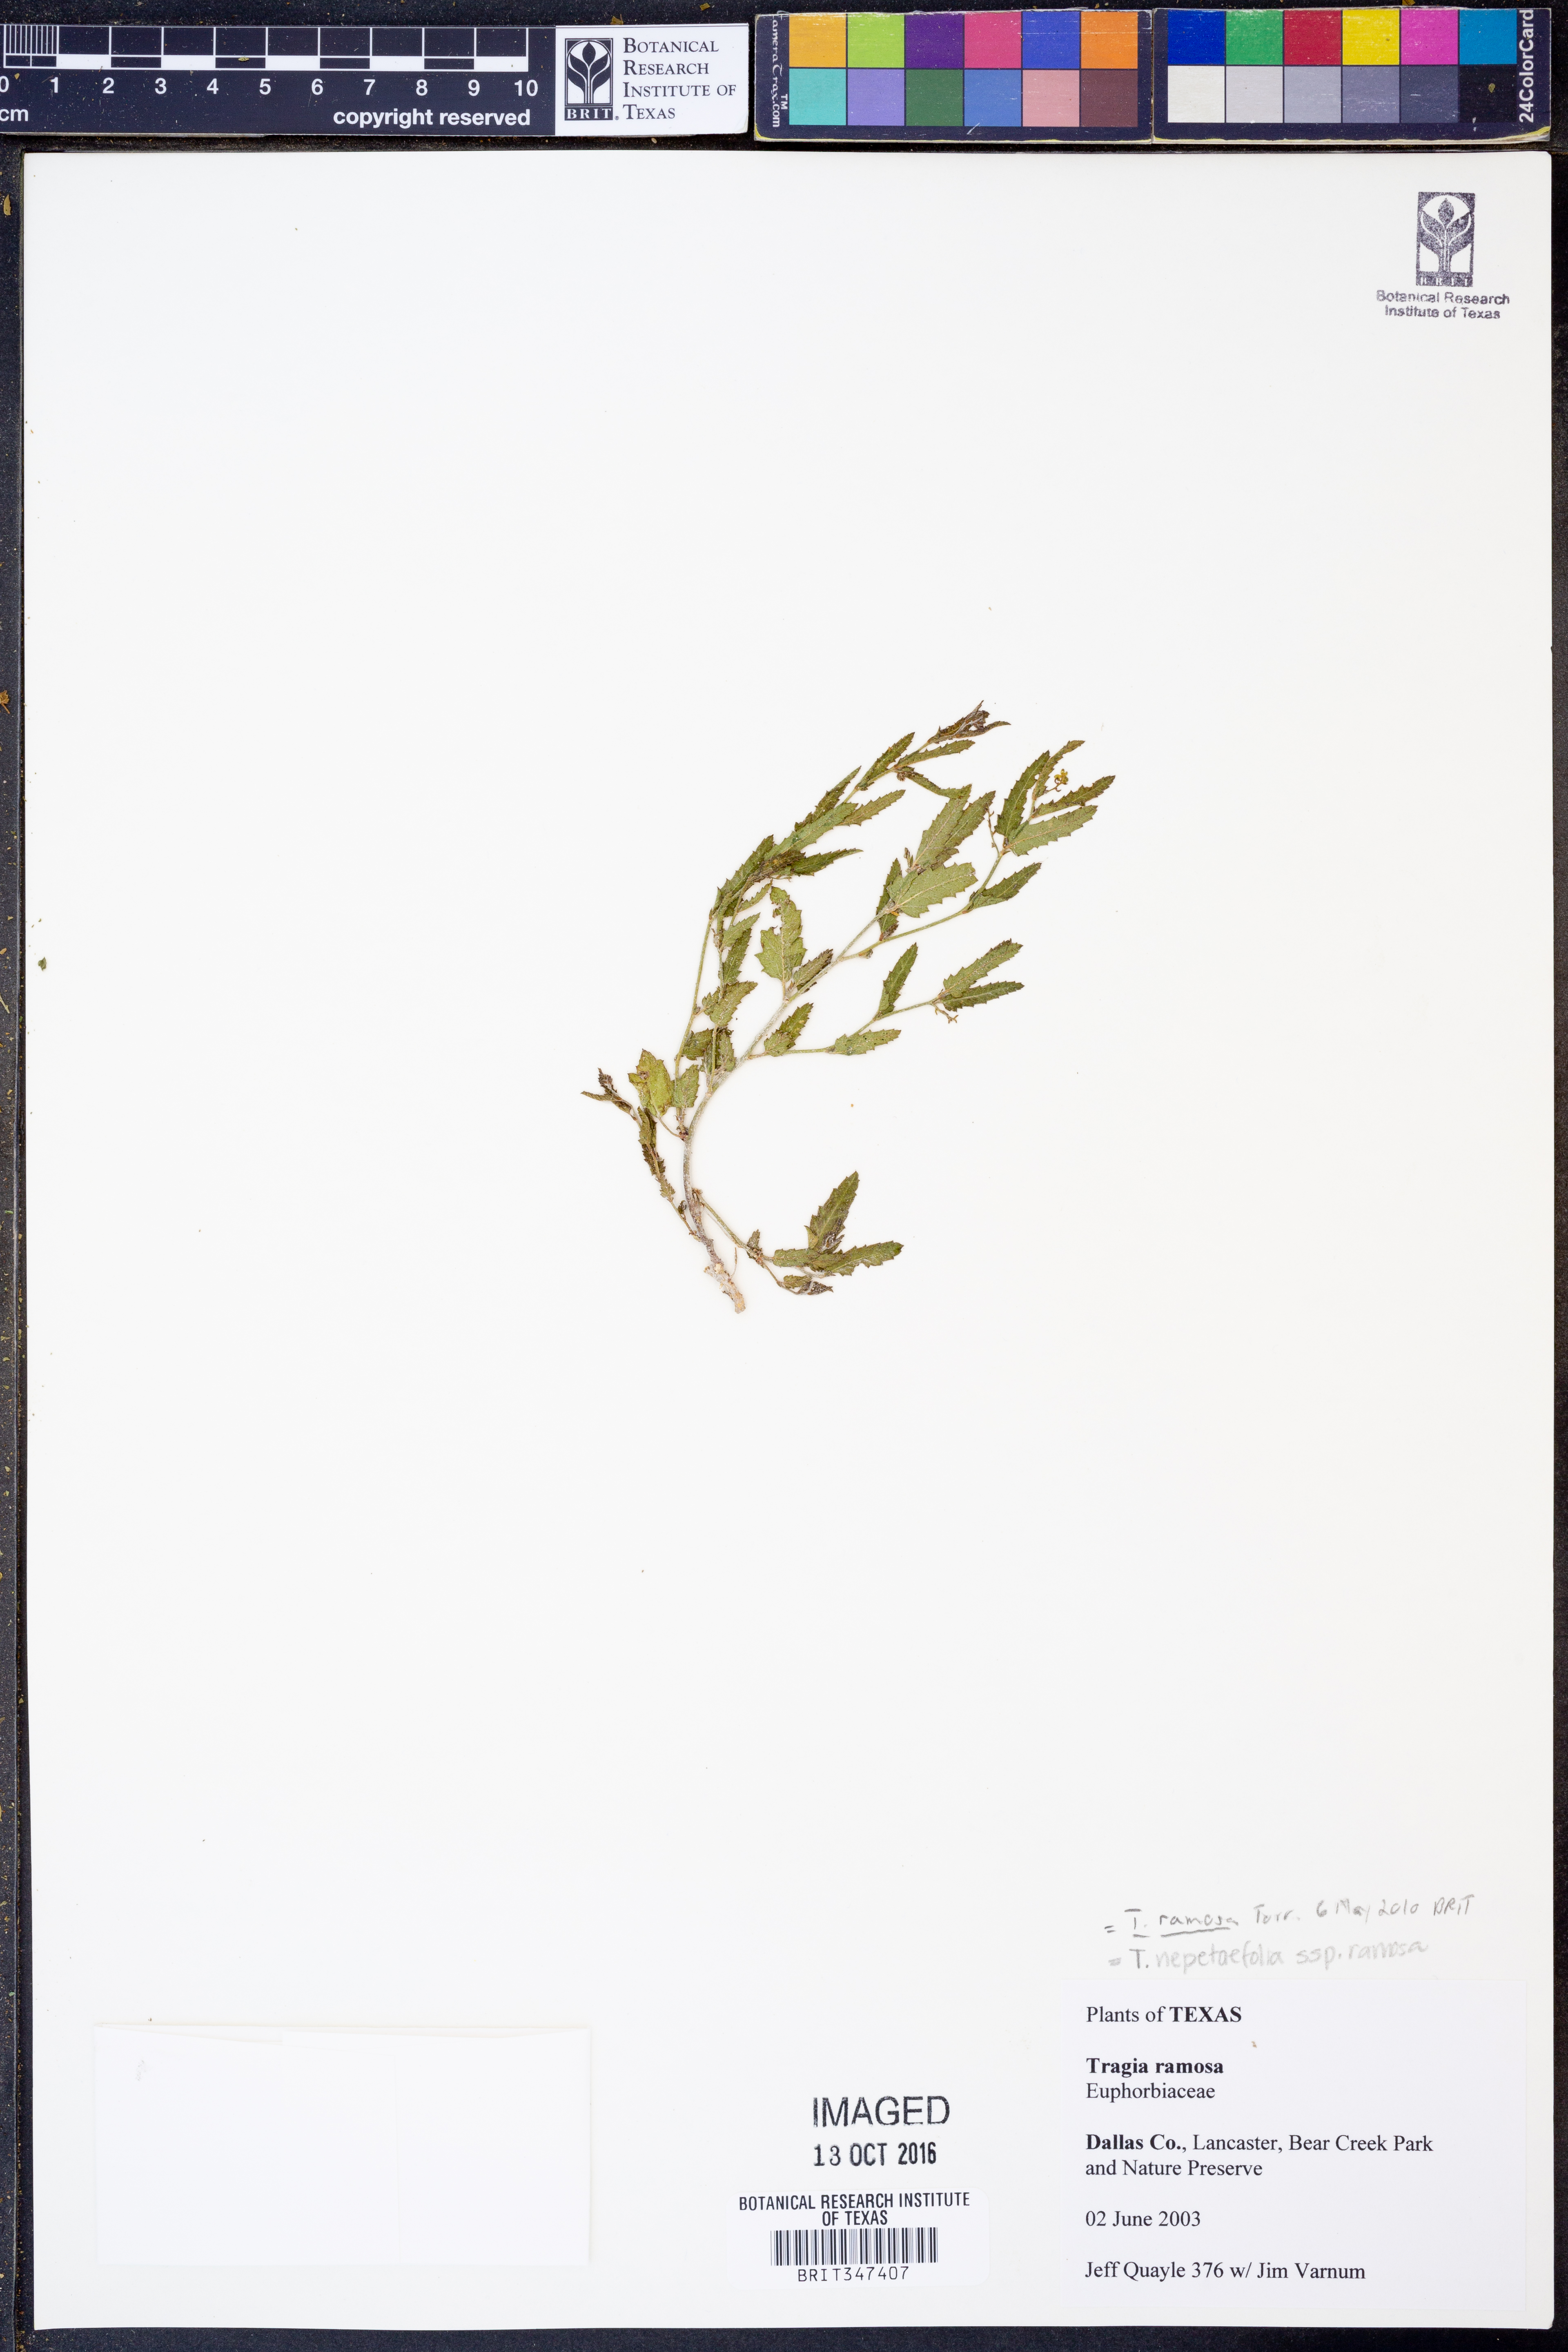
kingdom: Plantae
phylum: Tracheophyta
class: Magnoliopsida
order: Malpighiales
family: Euphorbiaceae
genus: Tragia
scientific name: Tragia ramosa
